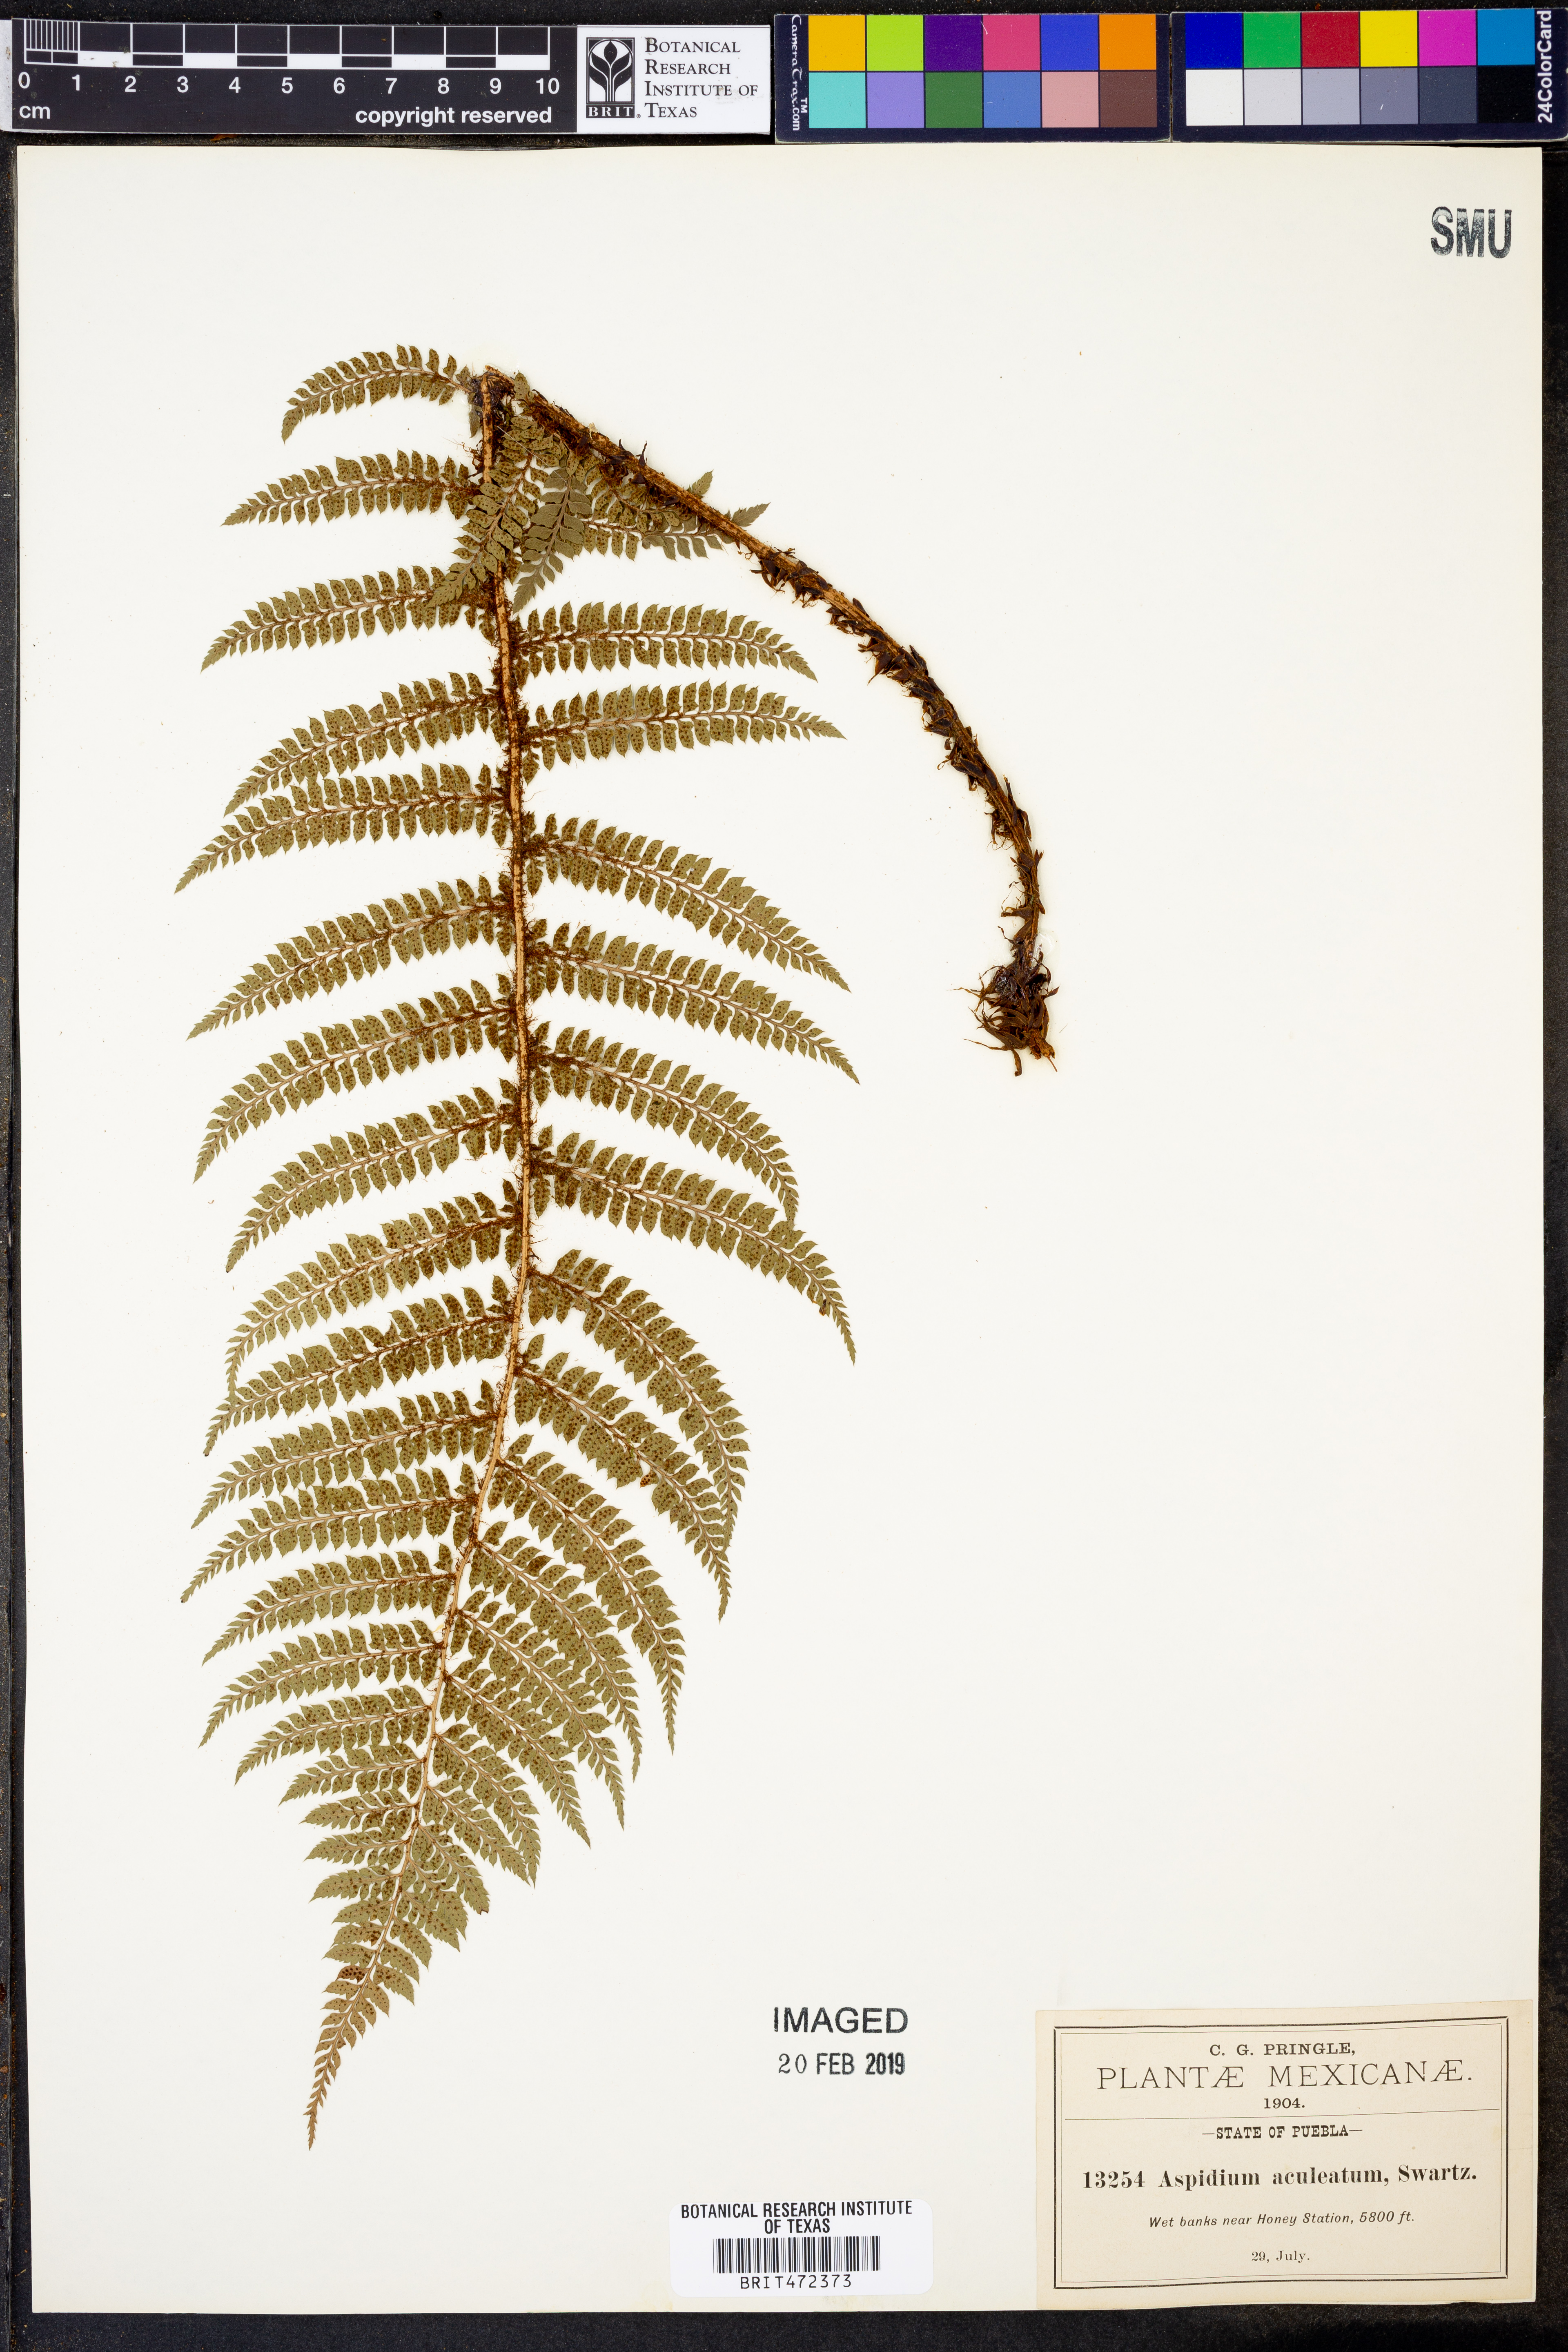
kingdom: Plantae
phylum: Tracheophyta
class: Polypodiopsida
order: Polypodiales
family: Dryopteridaceae
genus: Dryopteris
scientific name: Dryopteris cambrensis
